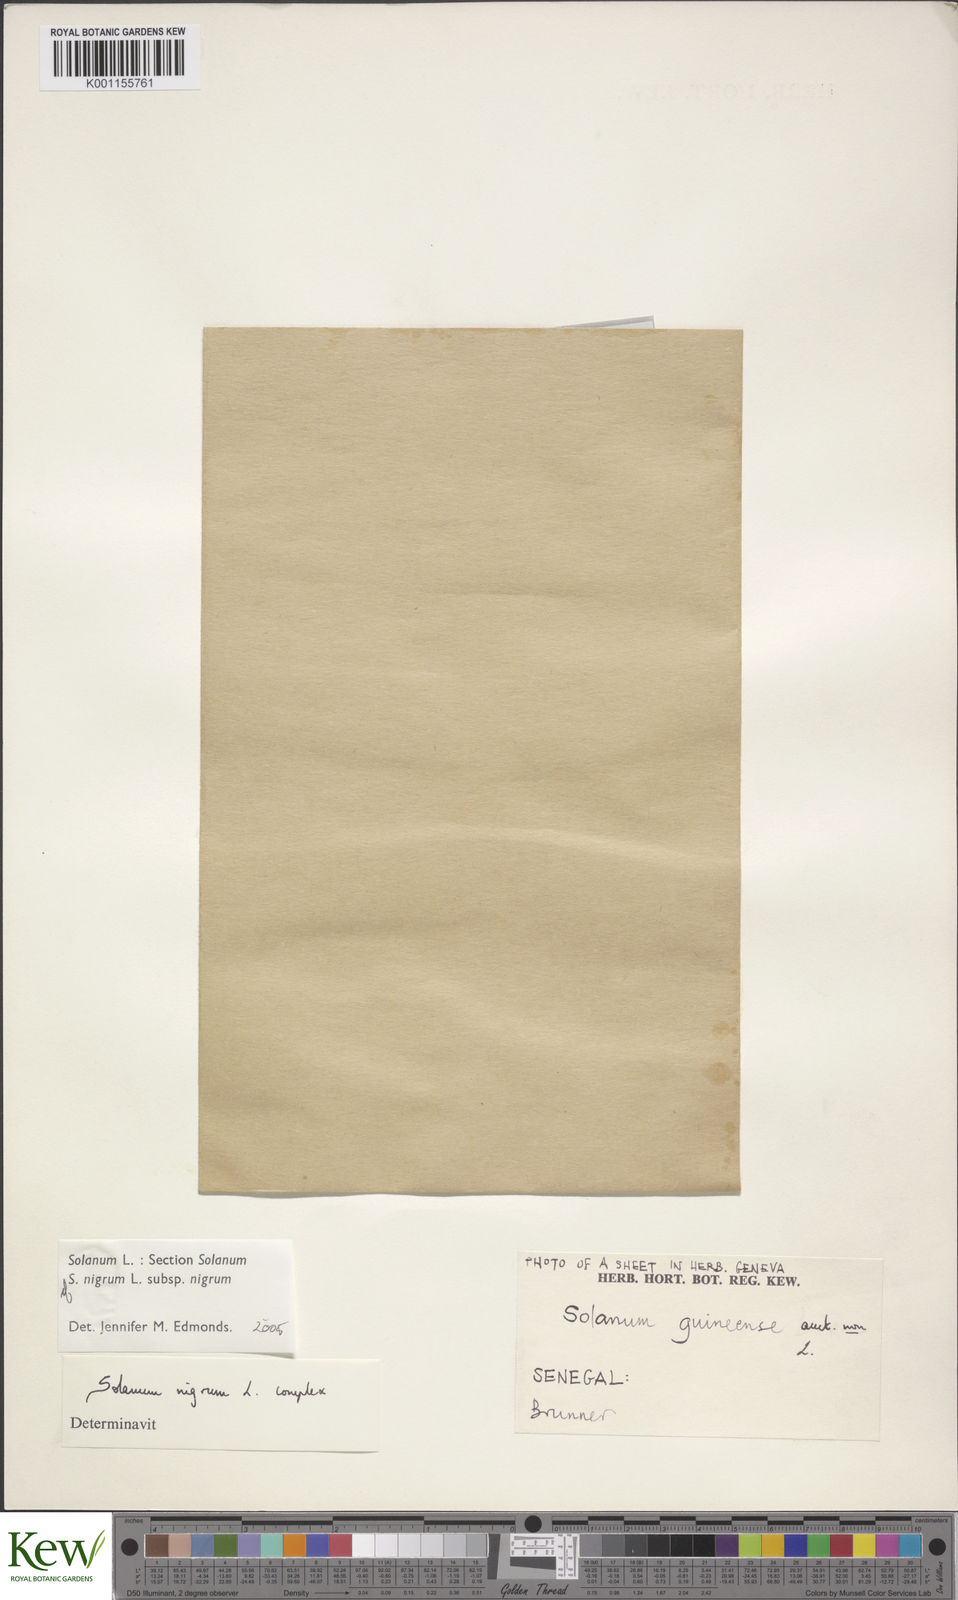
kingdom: Plantae
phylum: Tracheophyta
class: Magnoliopsida
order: Solanales
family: Solanaceae
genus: Solanum
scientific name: Solanum nigrum
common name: Black nightshade
